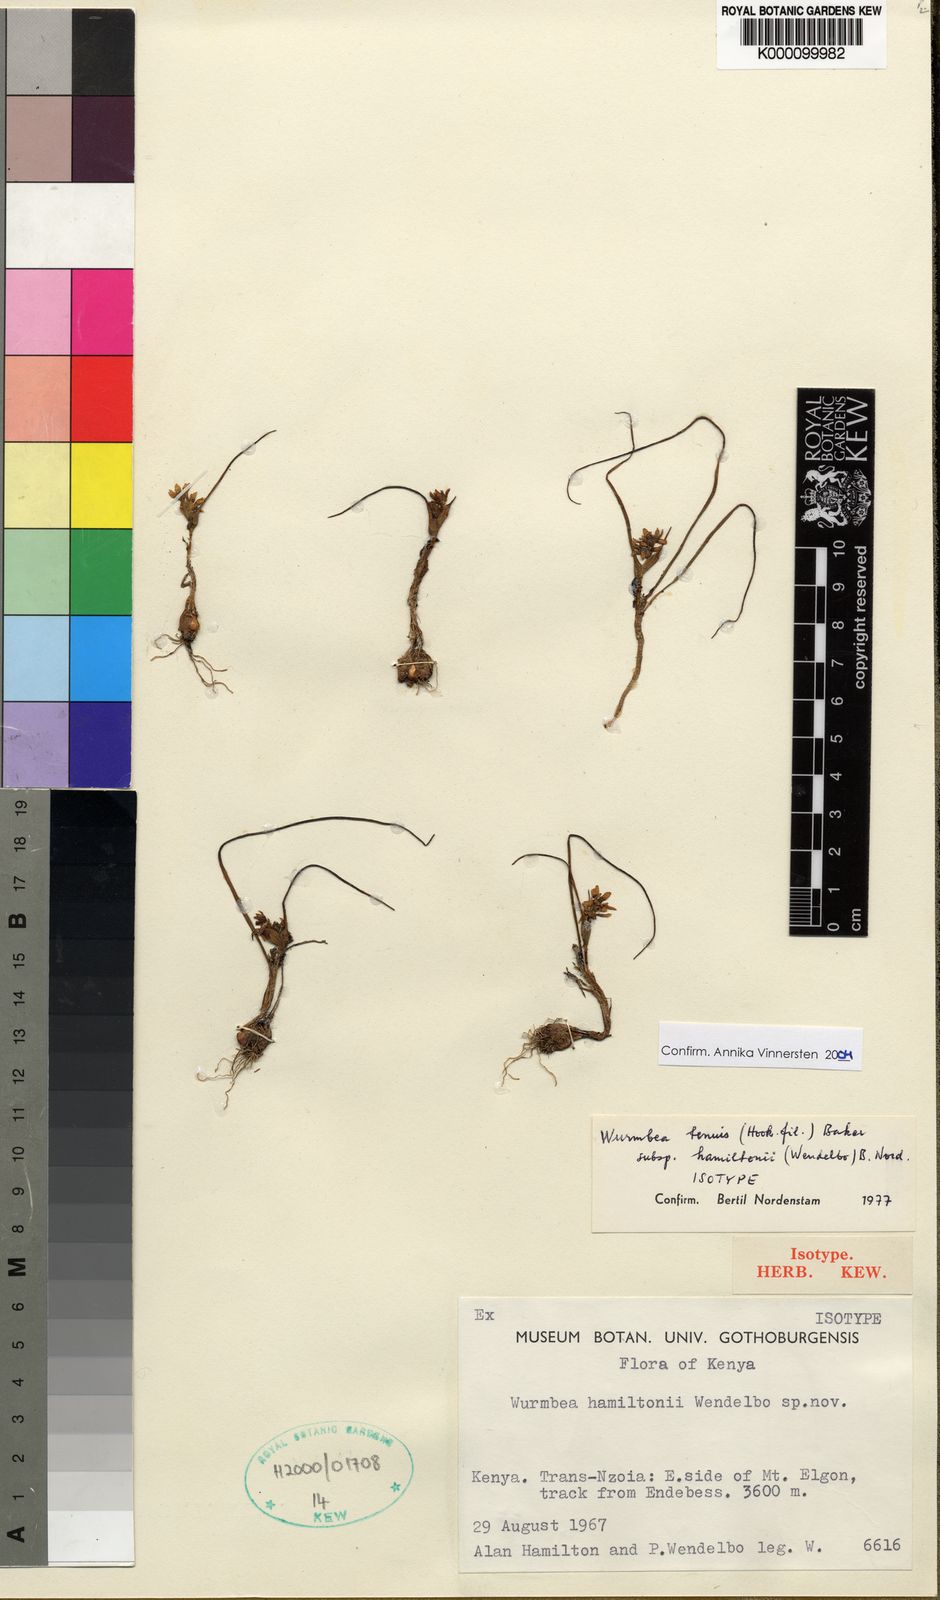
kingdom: Plantae
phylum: Tracheophyta
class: Liliopsida
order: Liliales
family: Colchicaceae
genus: Wurmbea
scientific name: Wurmbea tenuis
